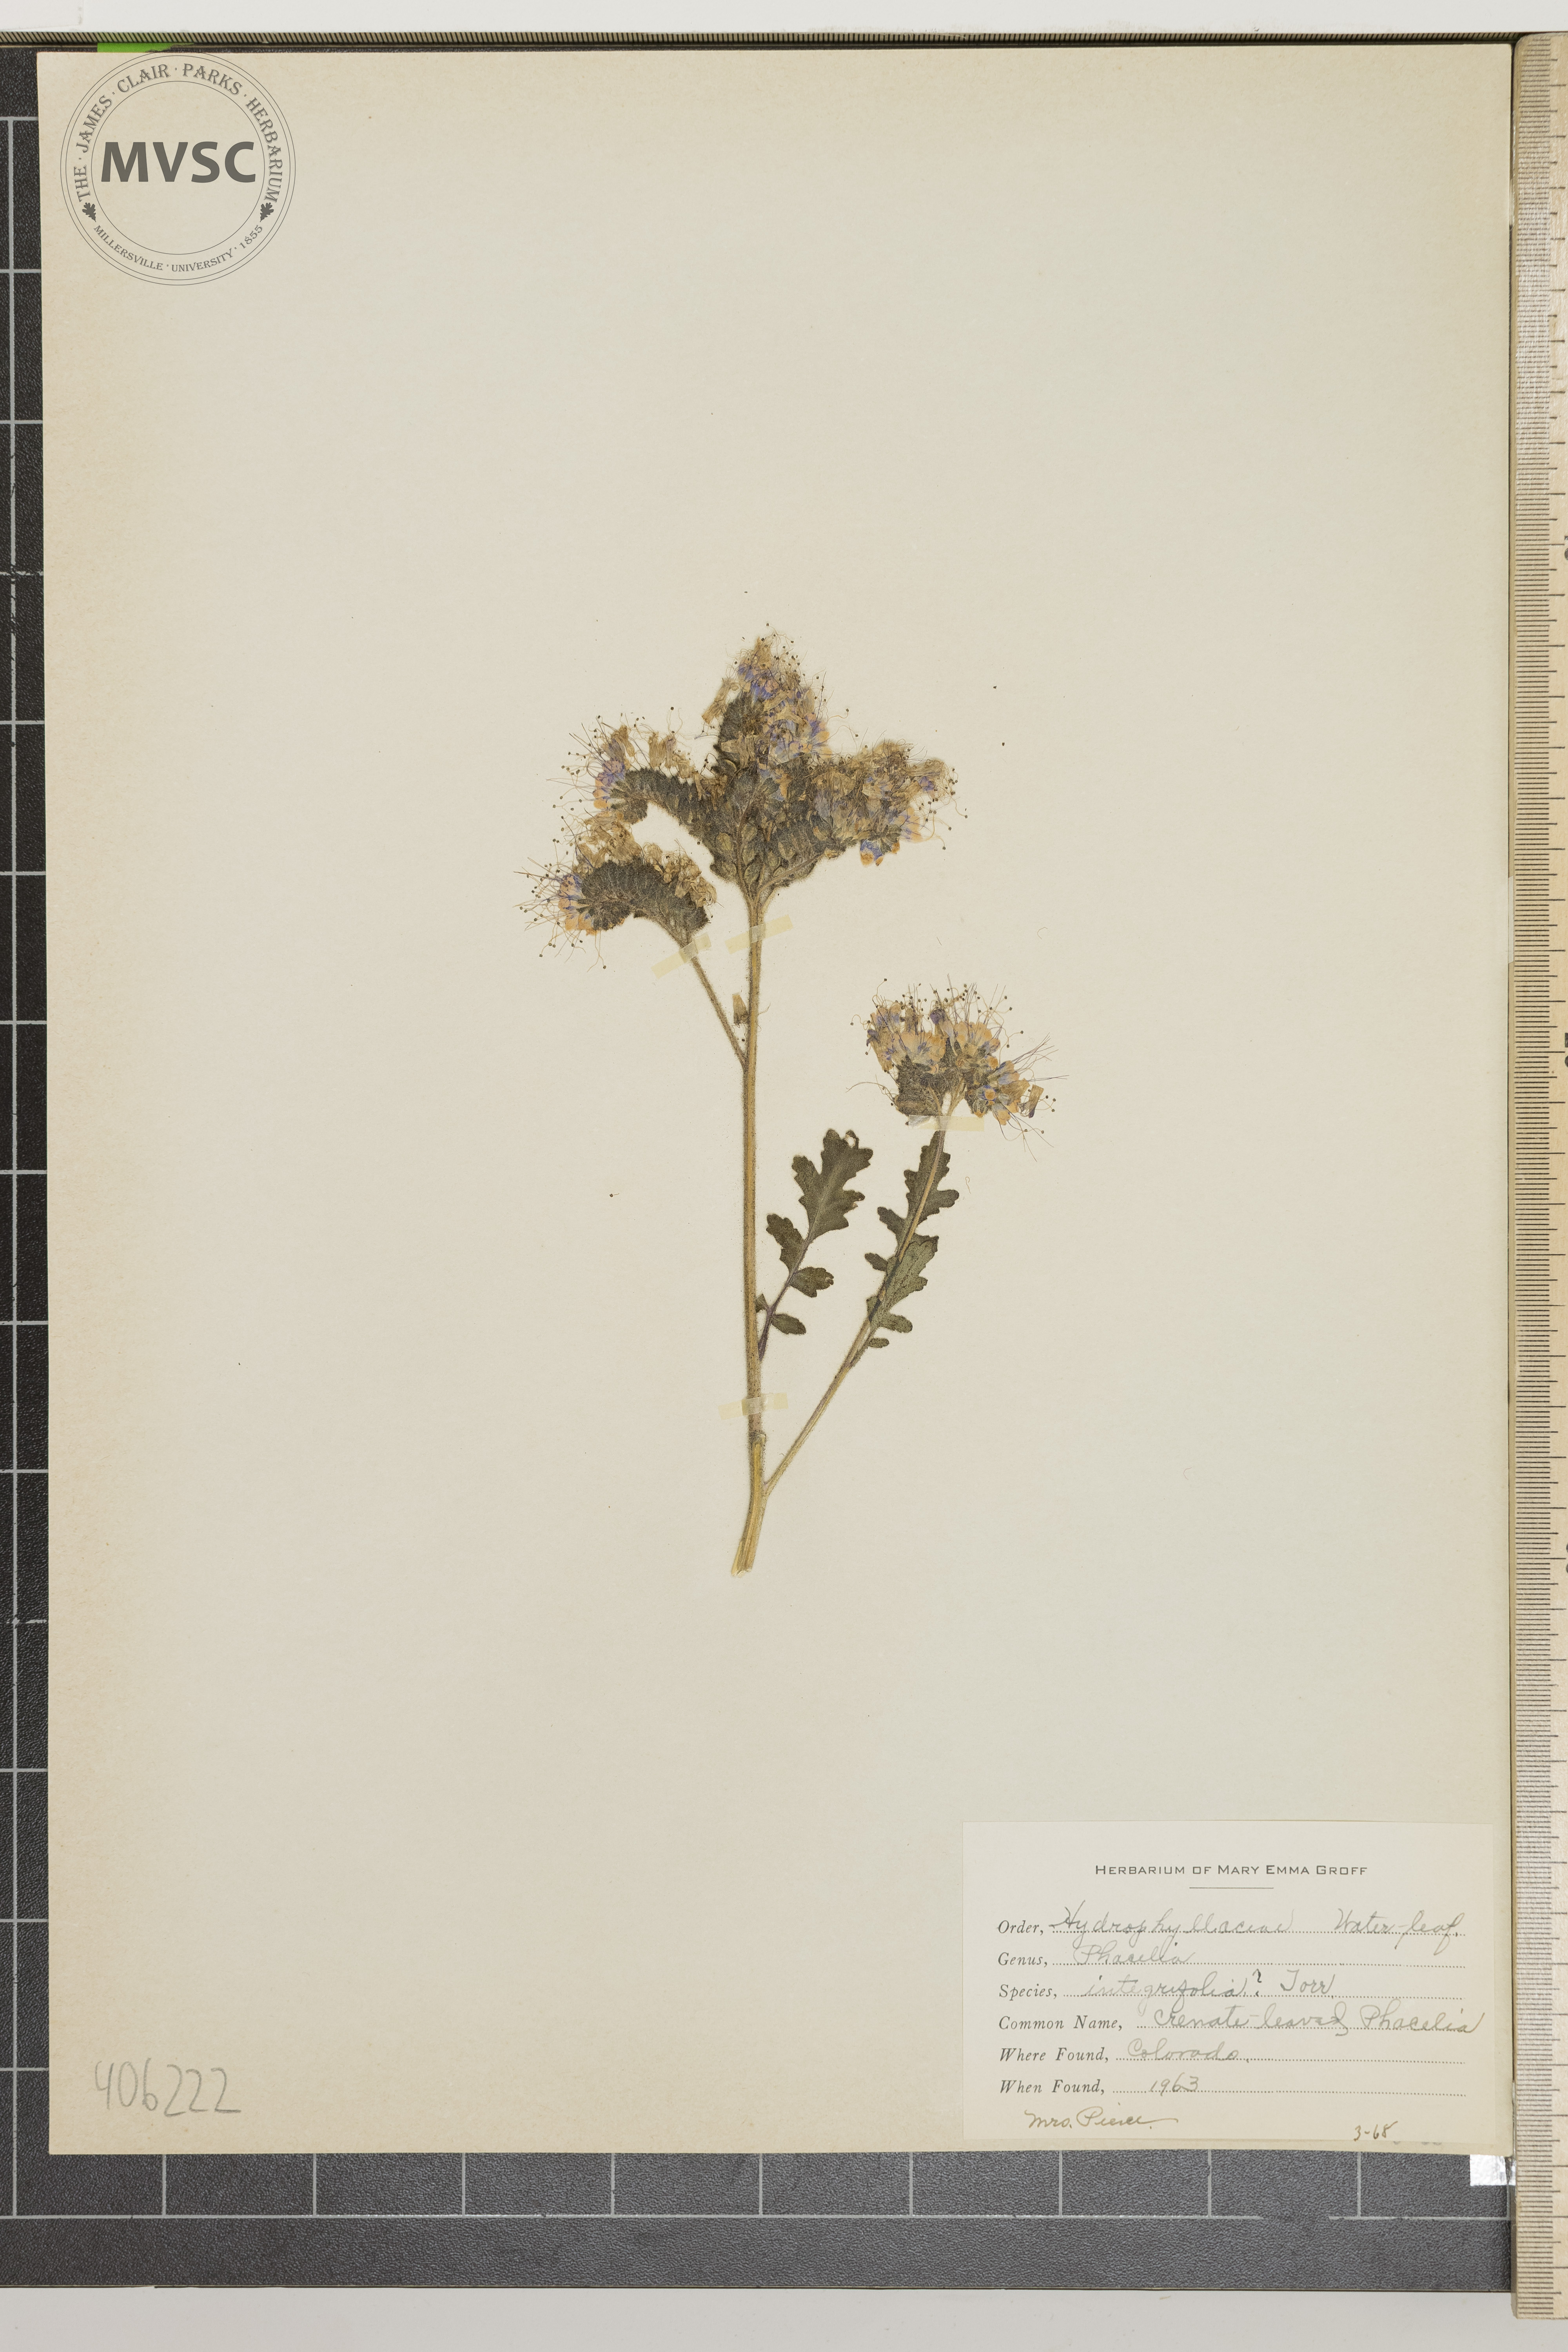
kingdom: Plantae
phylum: Tracheophyta
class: Magnoliopsida
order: Boraginales
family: Hydrophyllaceae
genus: Phacelia
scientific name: Phacelia integrifolia
